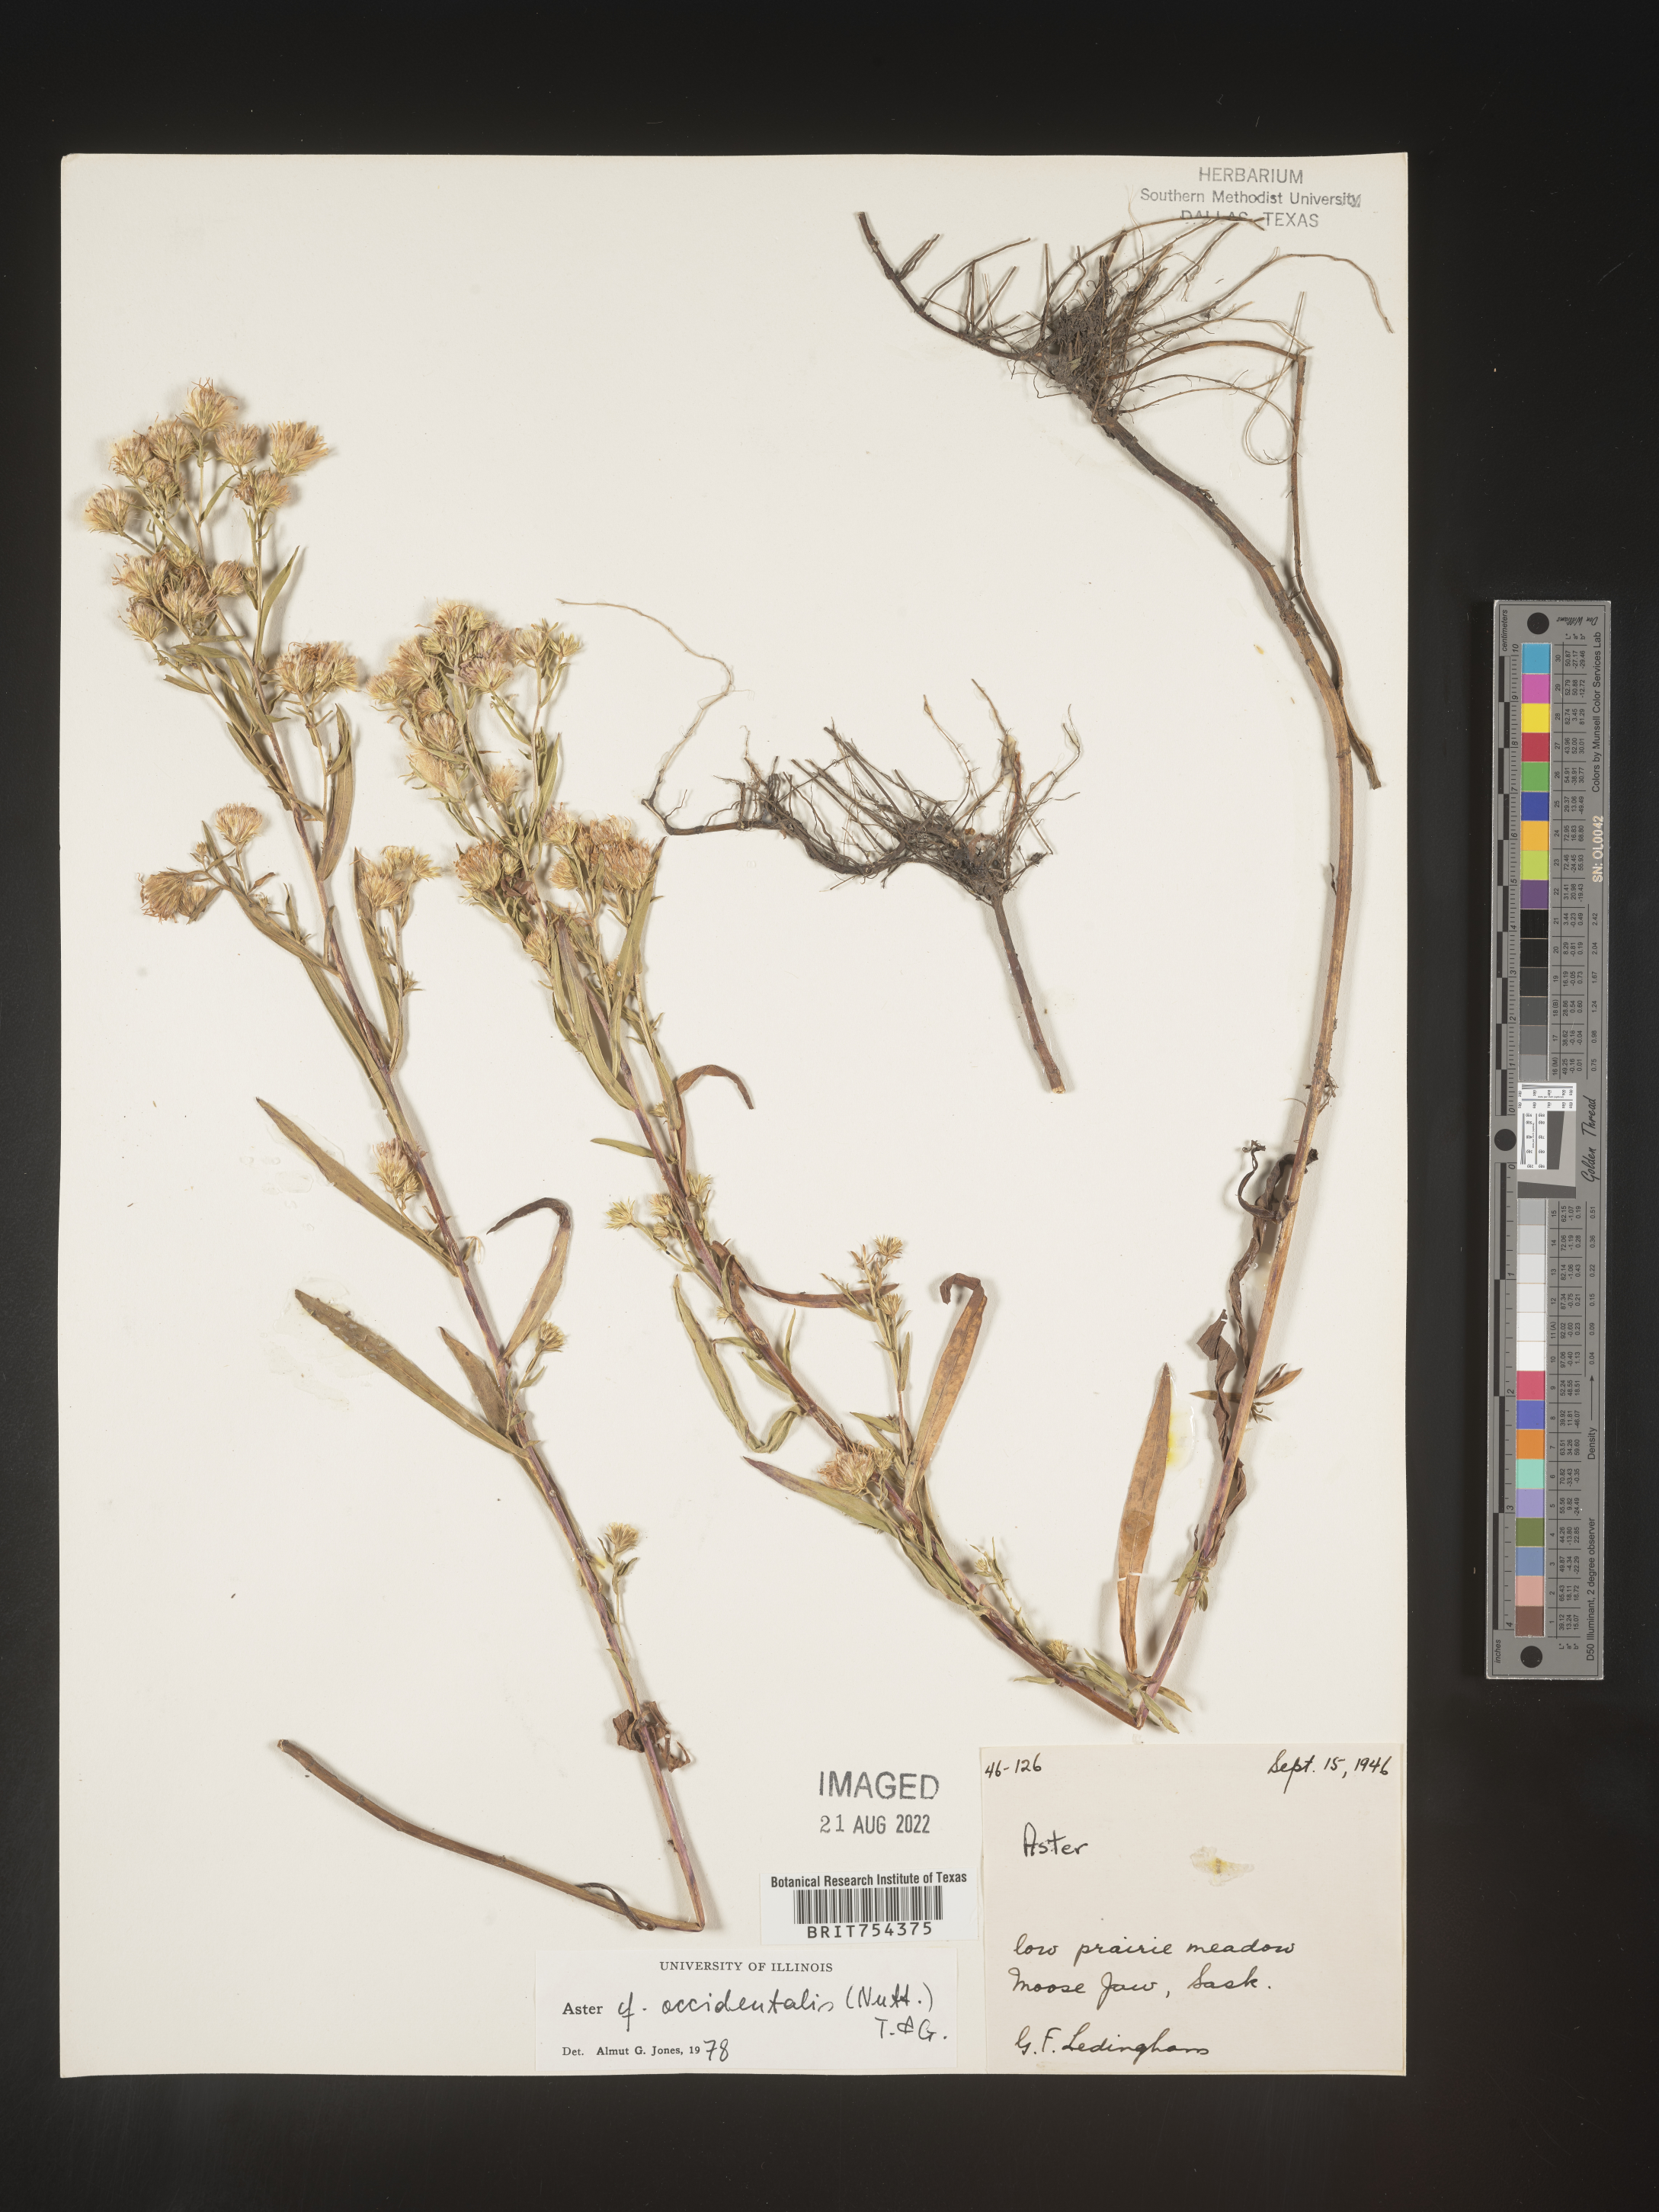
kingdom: Plantae
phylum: Tracheophyta
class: Magnoliopsida
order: Asterales
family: Asteraceae
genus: Symphyotrichum
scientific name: Symphyotrichum spathulatum
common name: Western mountain aster
